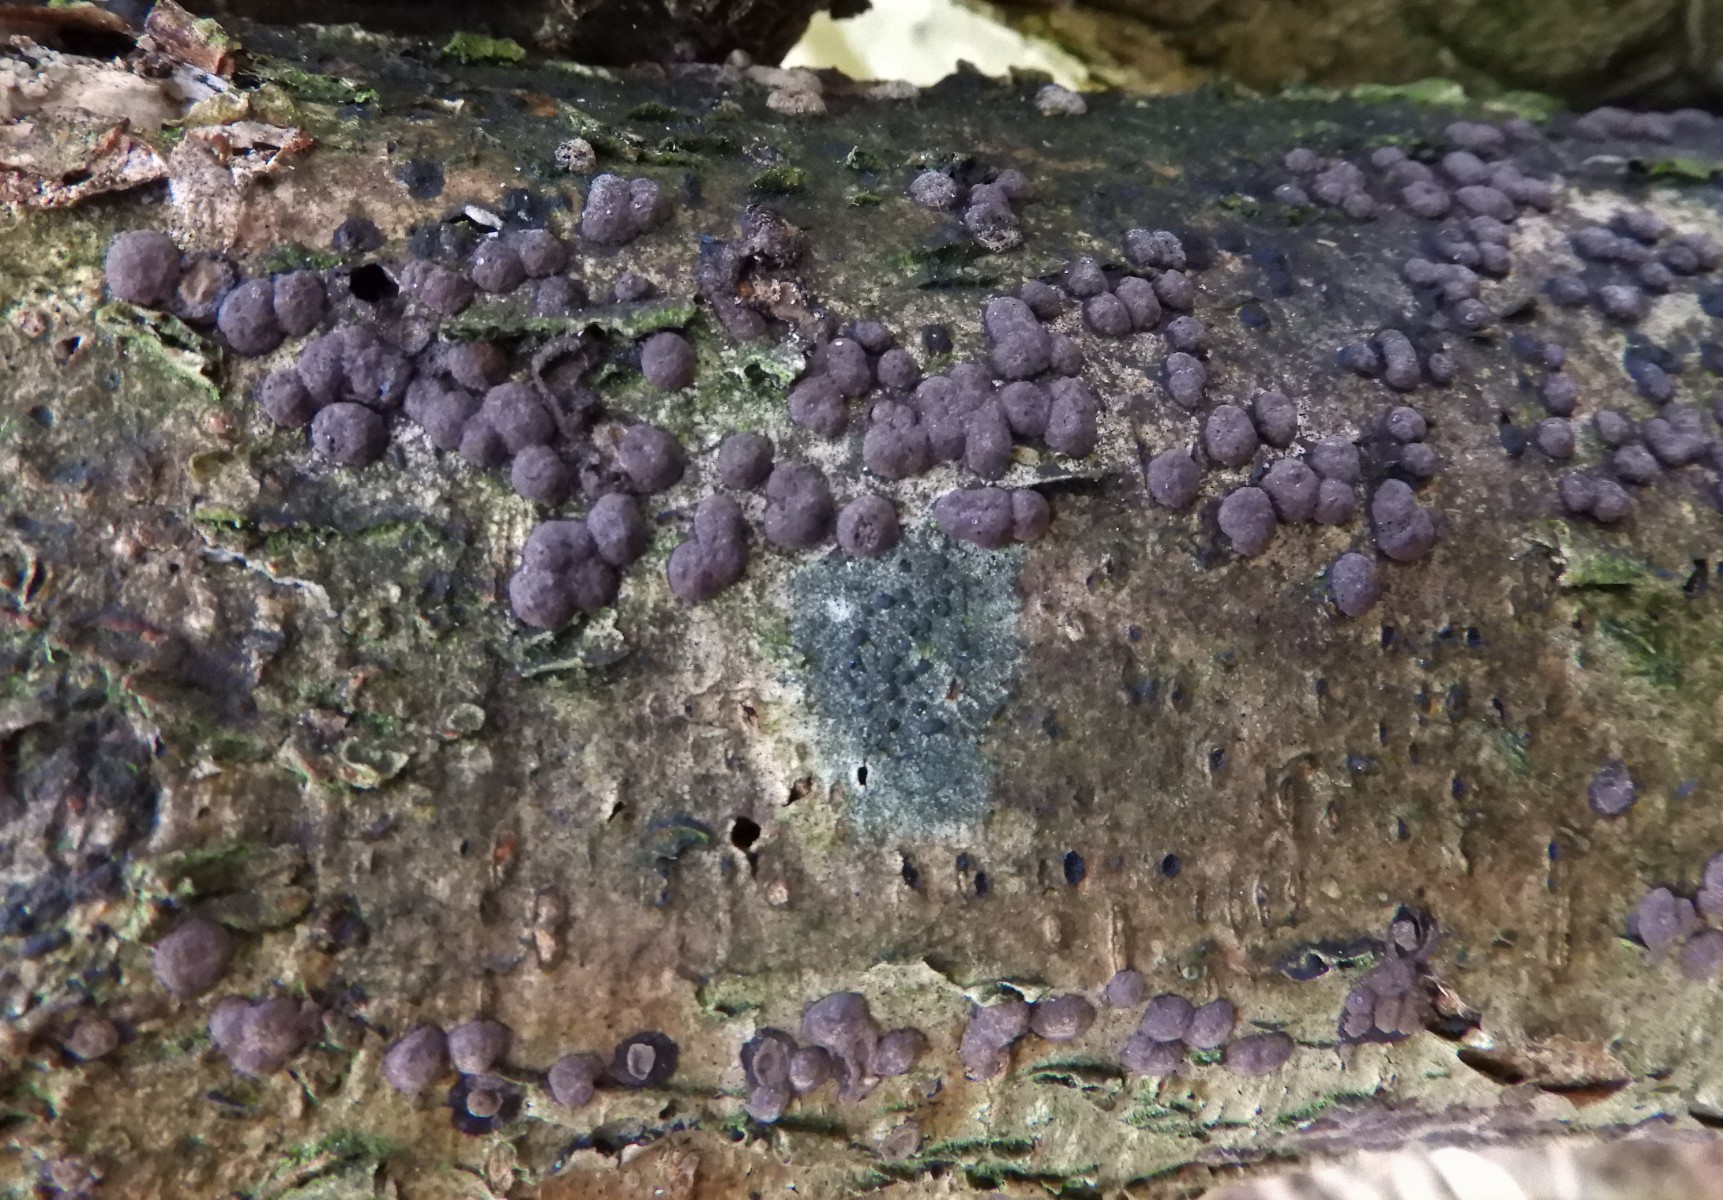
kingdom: Fungi
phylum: Ascomycota
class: Sordariomycetes
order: Xylariales
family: Hypoxylaceae
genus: Hypoxylon
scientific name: Hypoxylon fuscum
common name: kegleformet kulbær
